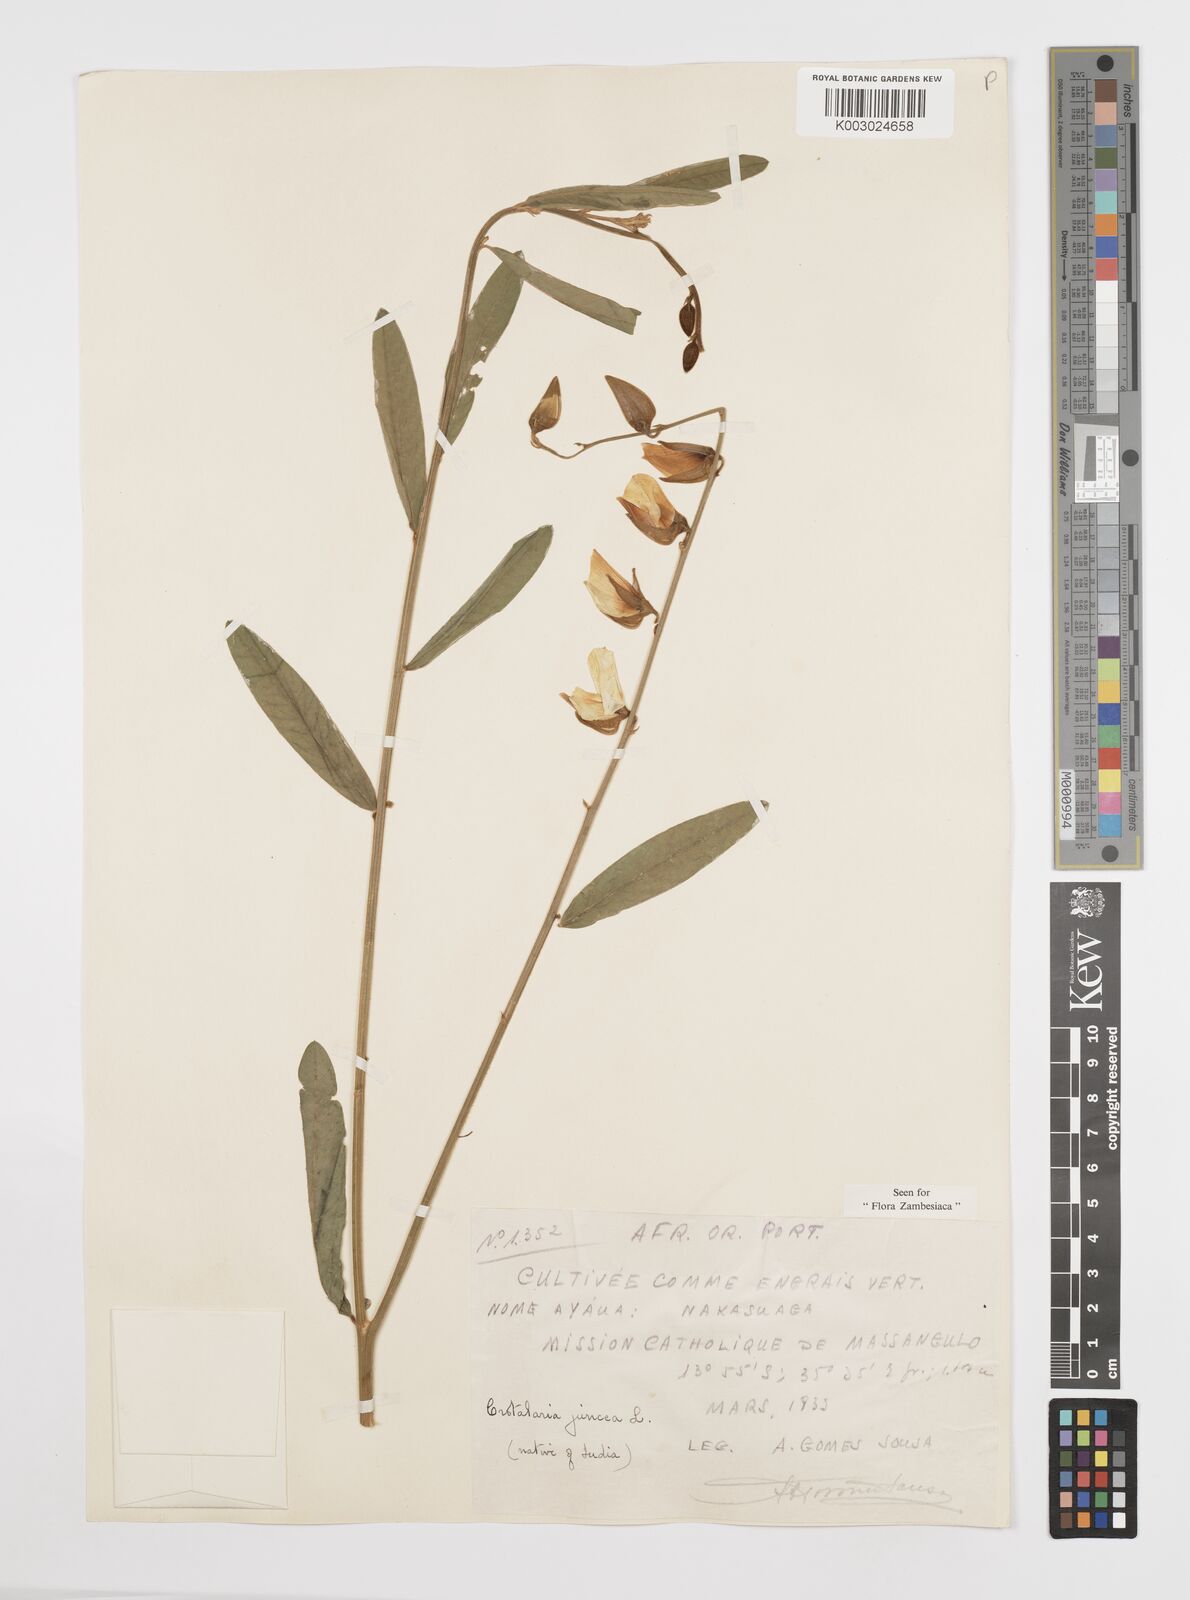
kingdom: Plantae
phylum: Tracheophyta
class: Magnoliopsida
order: Fabales
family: Fabaceae
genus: Crotalaria
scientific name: Crotalaria juncea
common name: Sunn hemp
